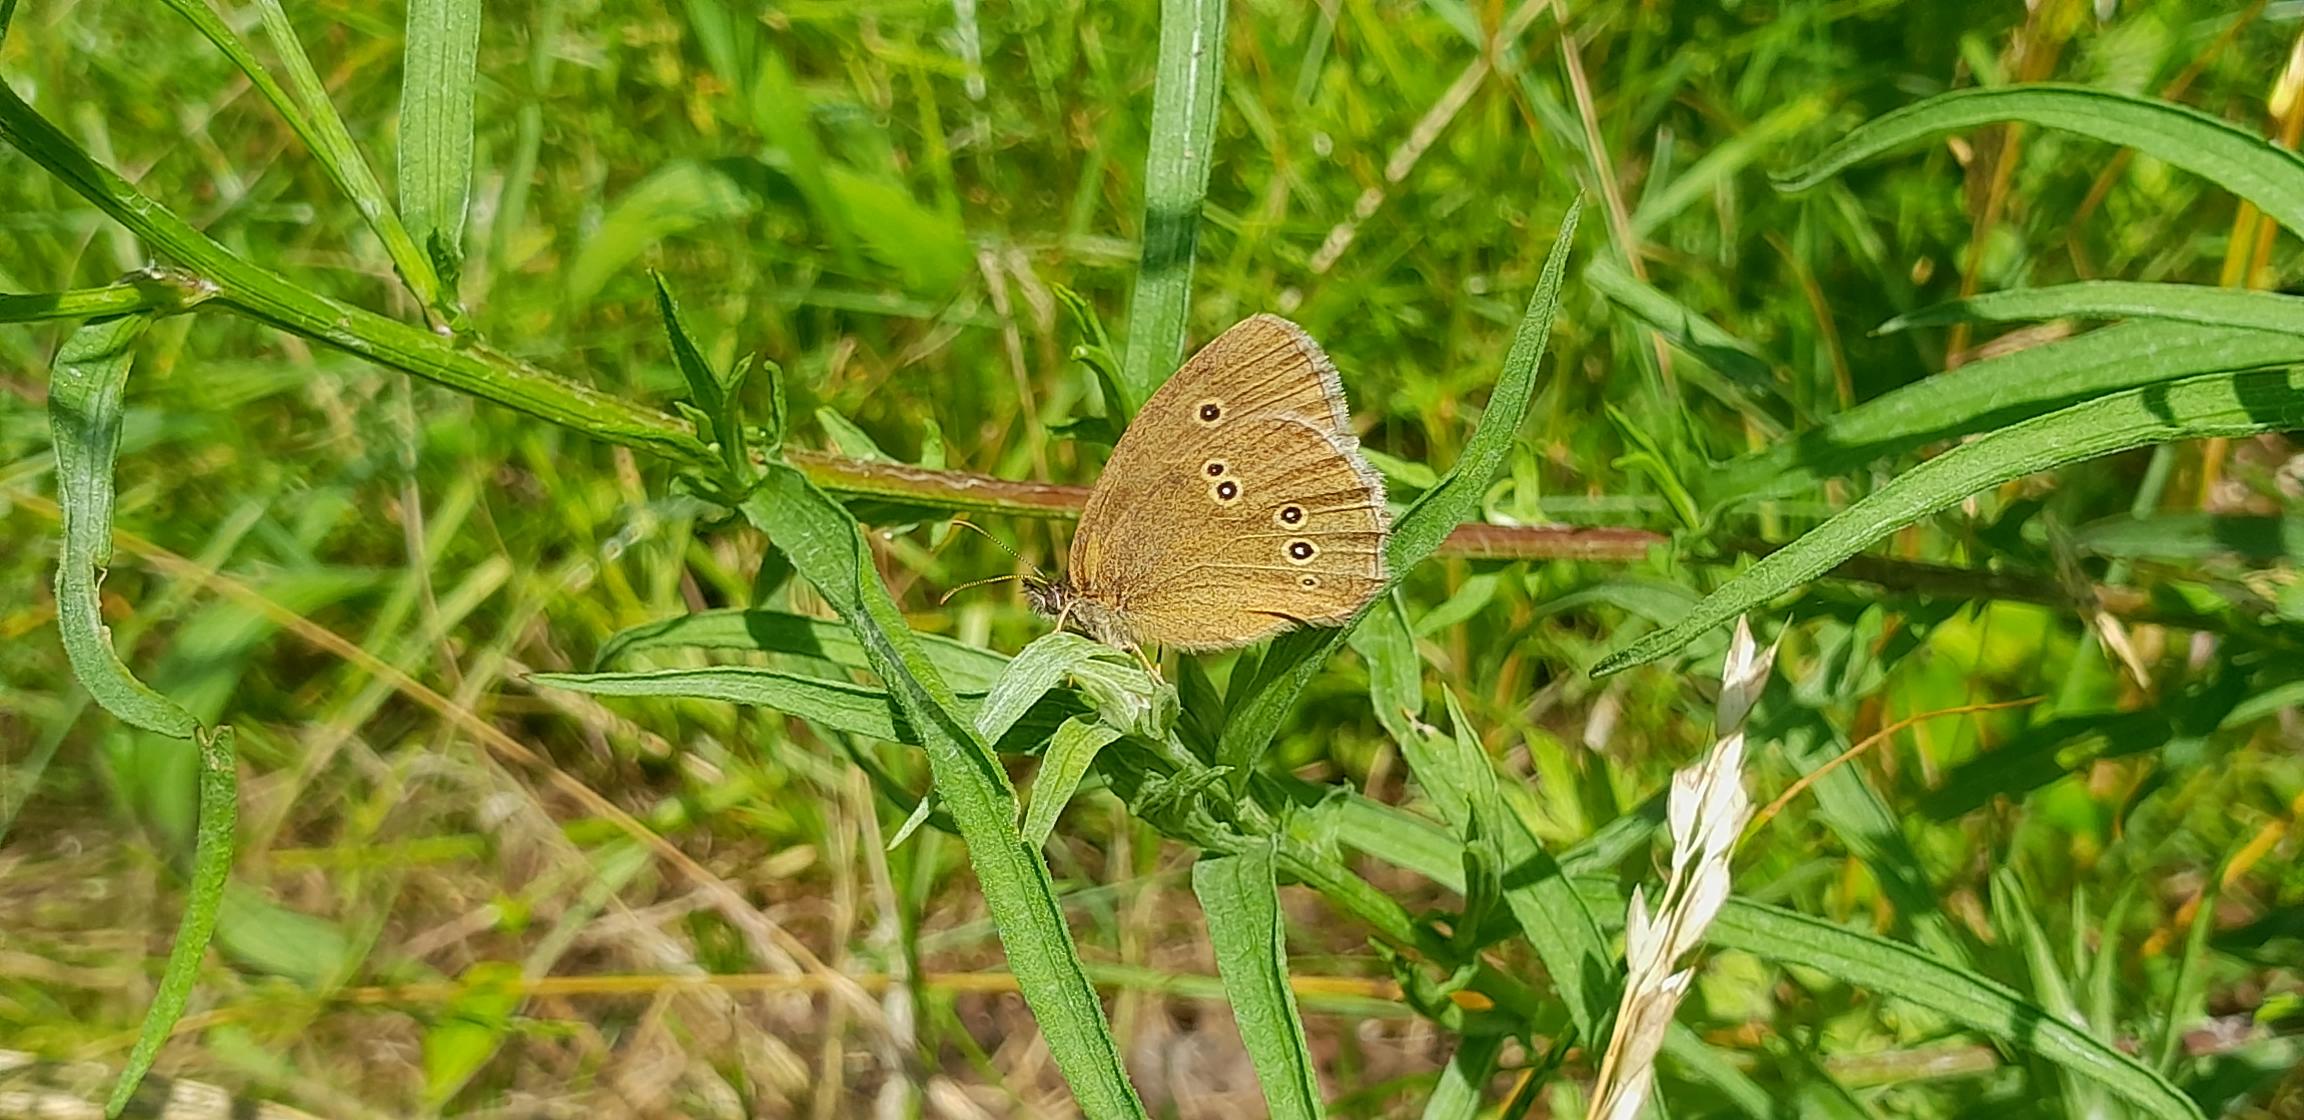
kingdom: Animalia
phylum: Arthropoda
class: Insecta
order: Lepidoptera
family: Nymphalidae
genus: Aphantopus
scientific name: Aphantopus hyperantus
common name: Engrandøje
